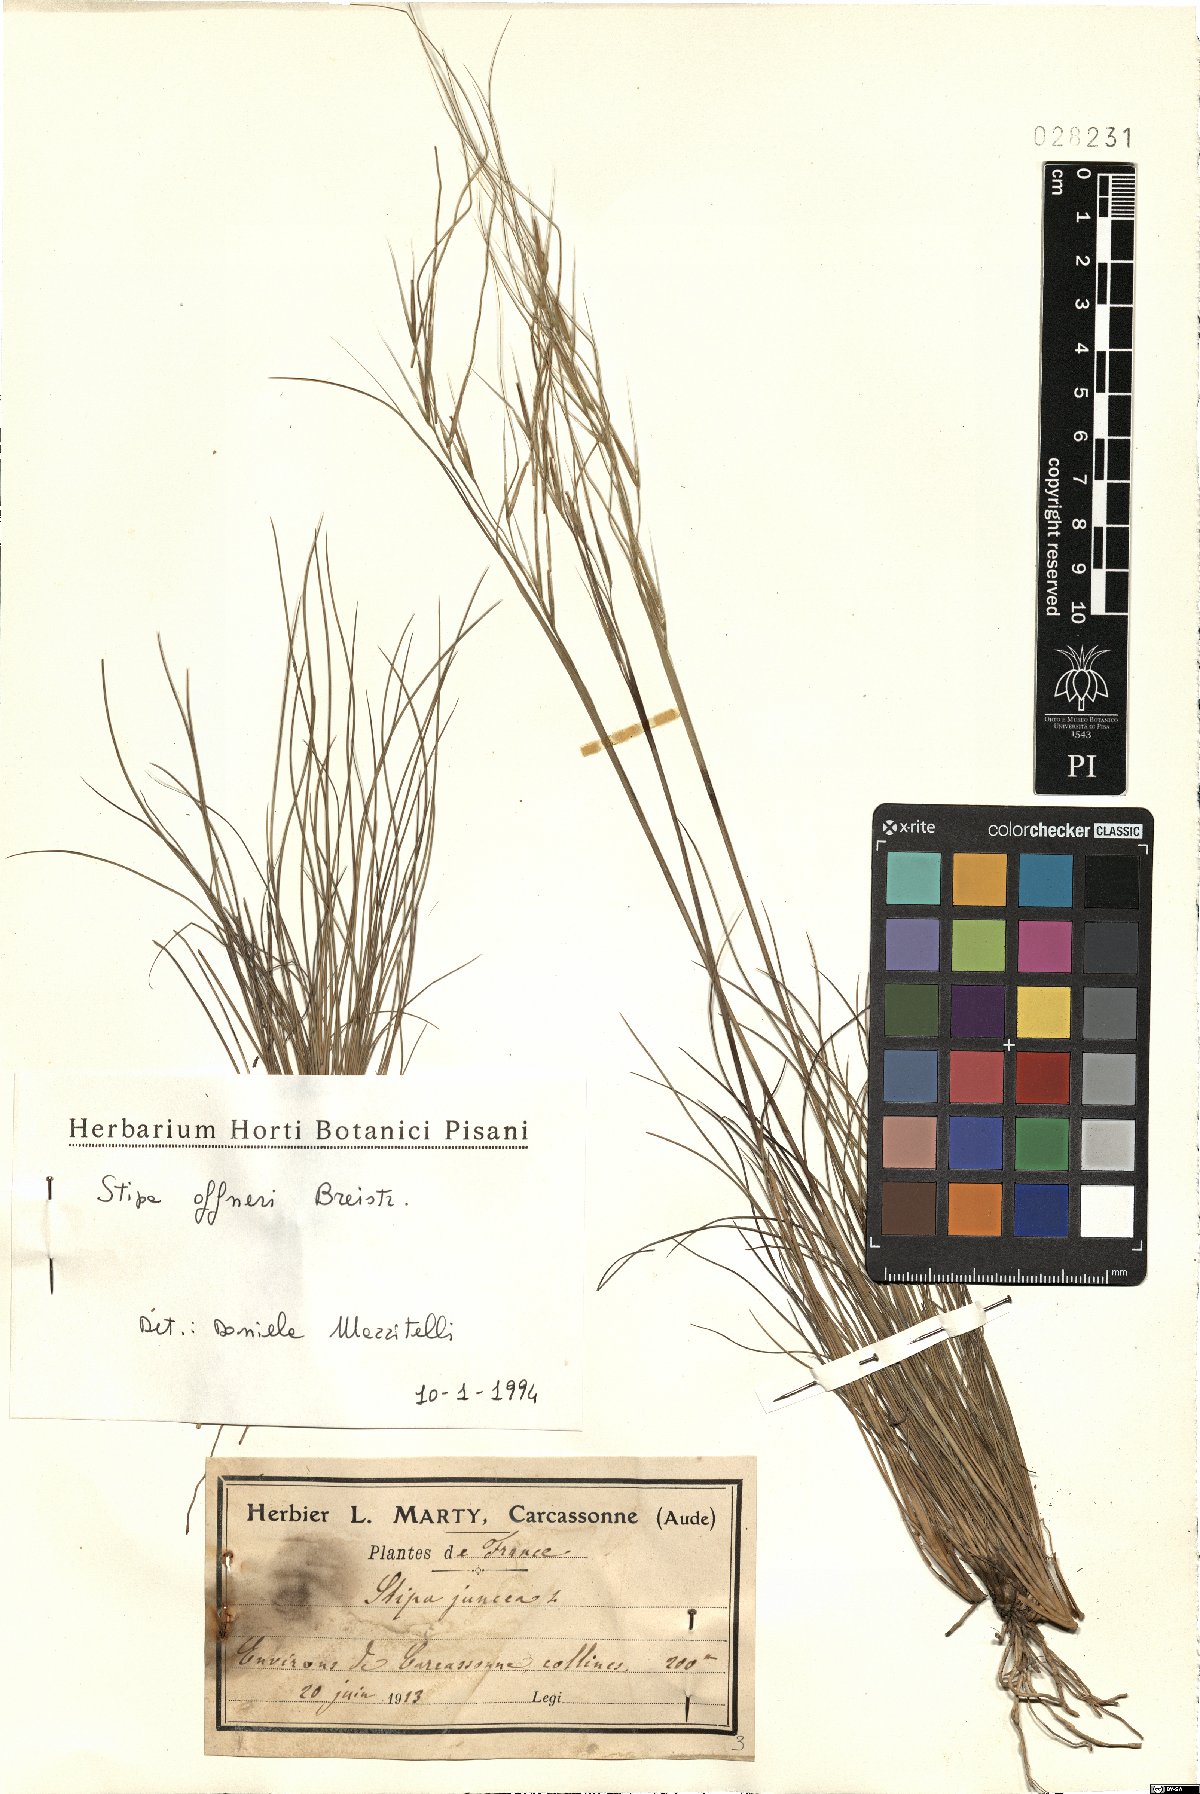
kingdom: Plantae
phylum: Tracheophyta
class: Liliopsida
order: Poales
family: Poaceae
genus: Stipa
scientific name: Stipa offneri
